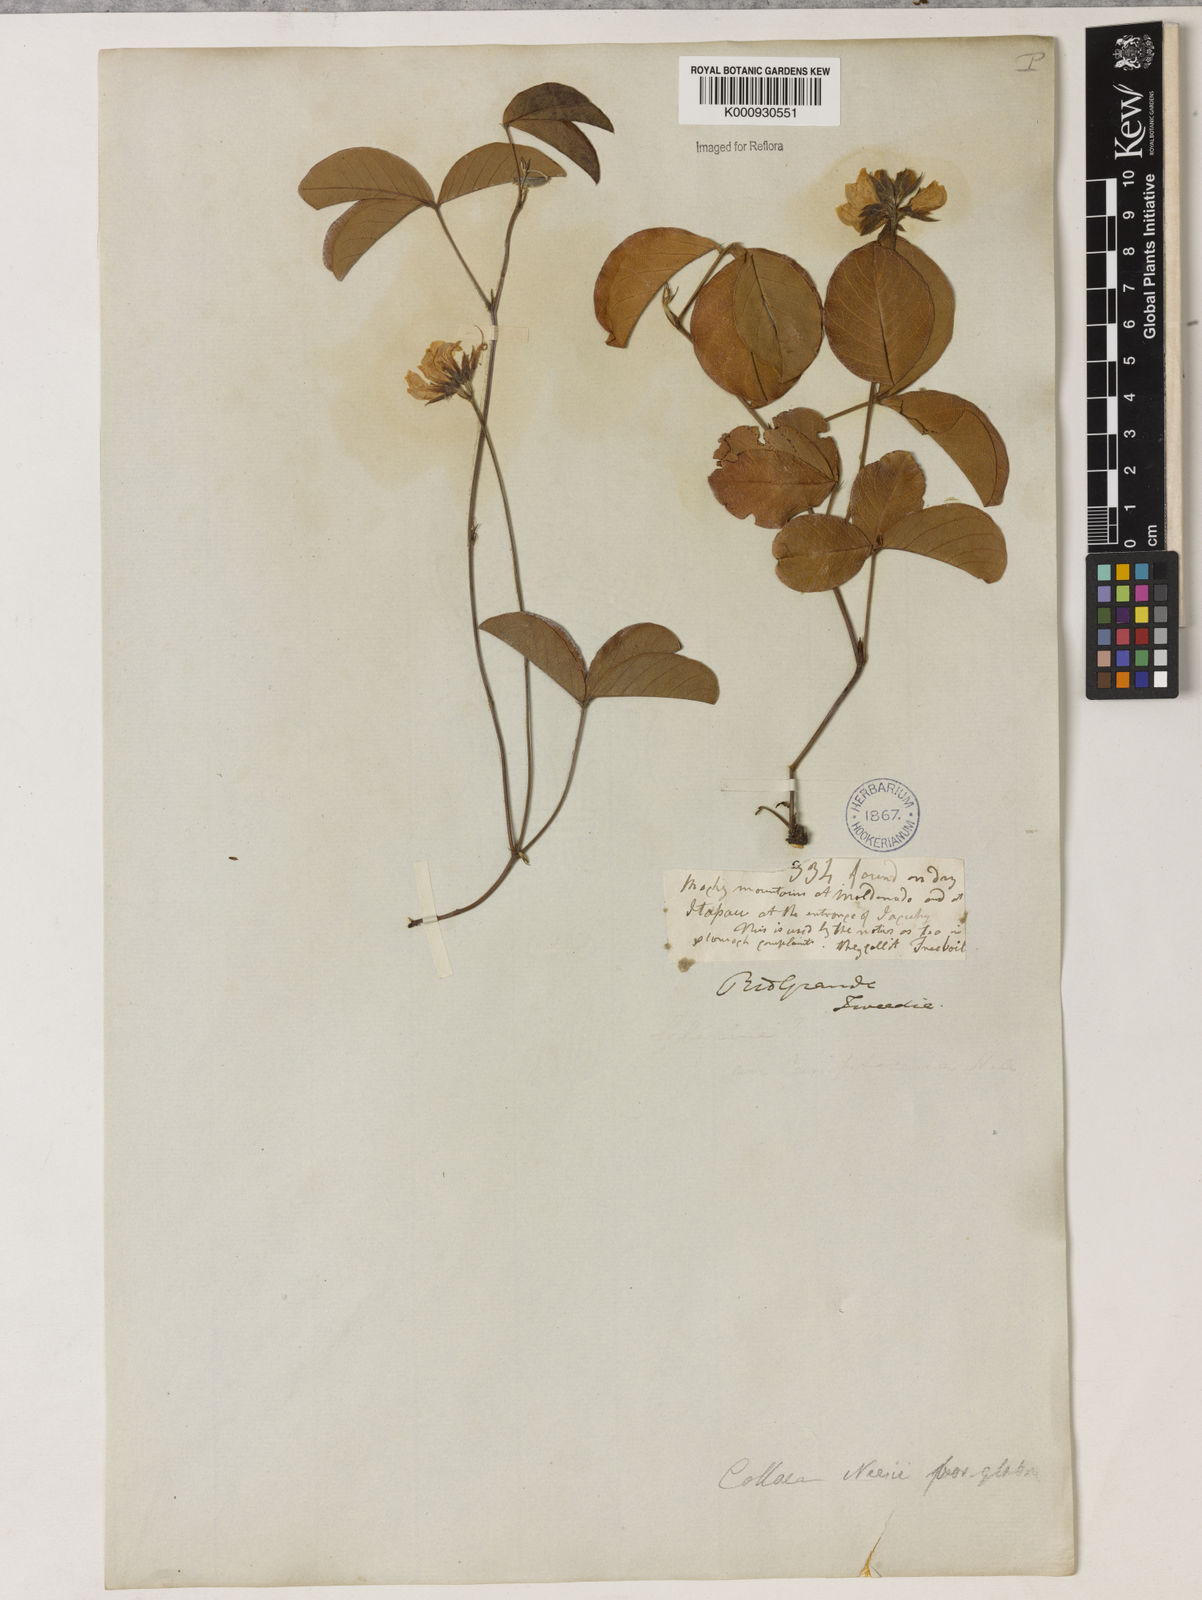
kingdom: Plantae
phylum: Tracheophyta
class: Magnoliopsida
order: Fabales
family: Fabaceae
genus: Betencourtia
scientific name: Betencourtia neesii
